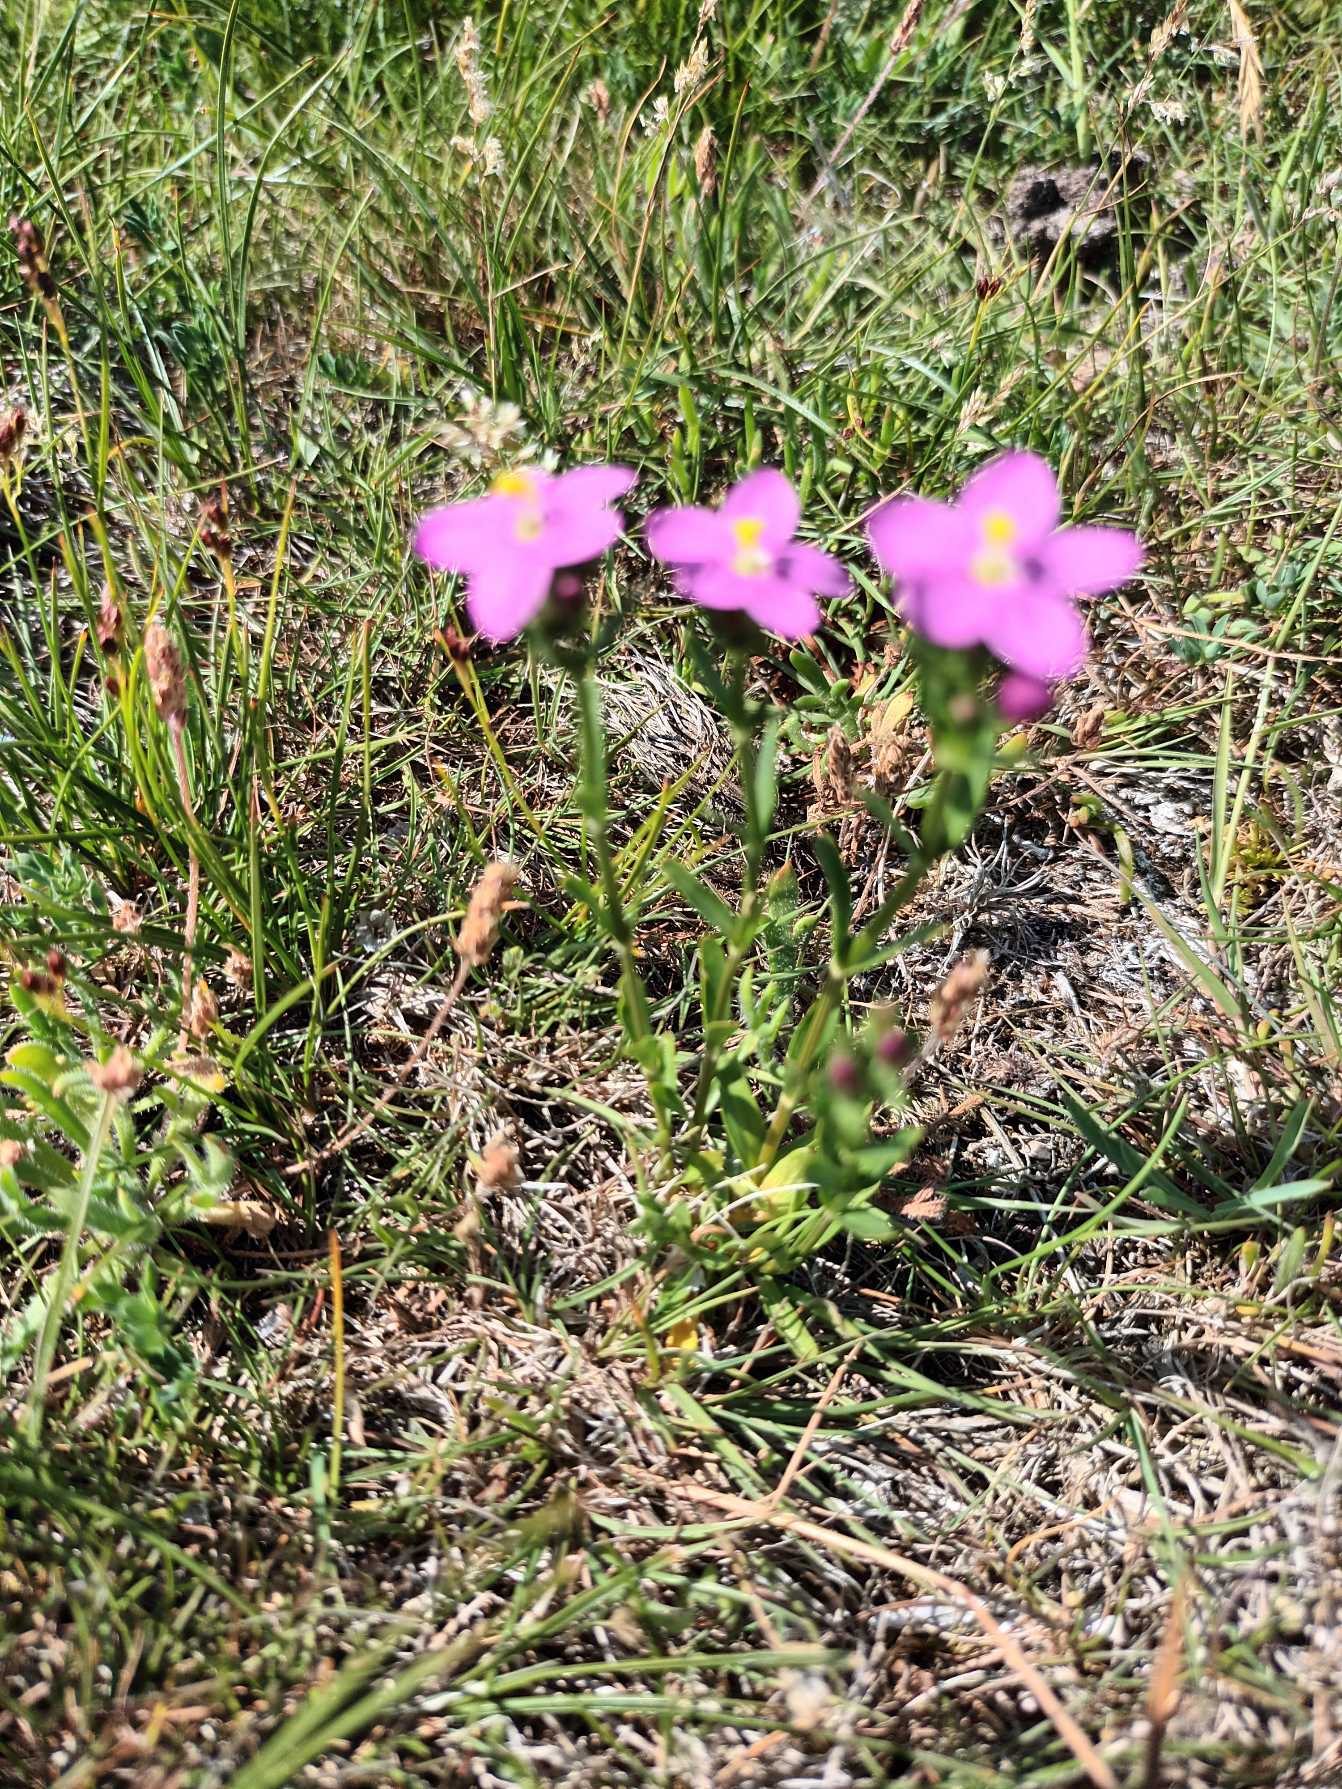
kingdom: Plantae
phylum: Tracheophyta
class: Magnoliopsida
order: Gentianales
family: Gentianaceae
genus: Centaurium
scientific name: Centaurium littorale
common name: Strand-tusindgylden
